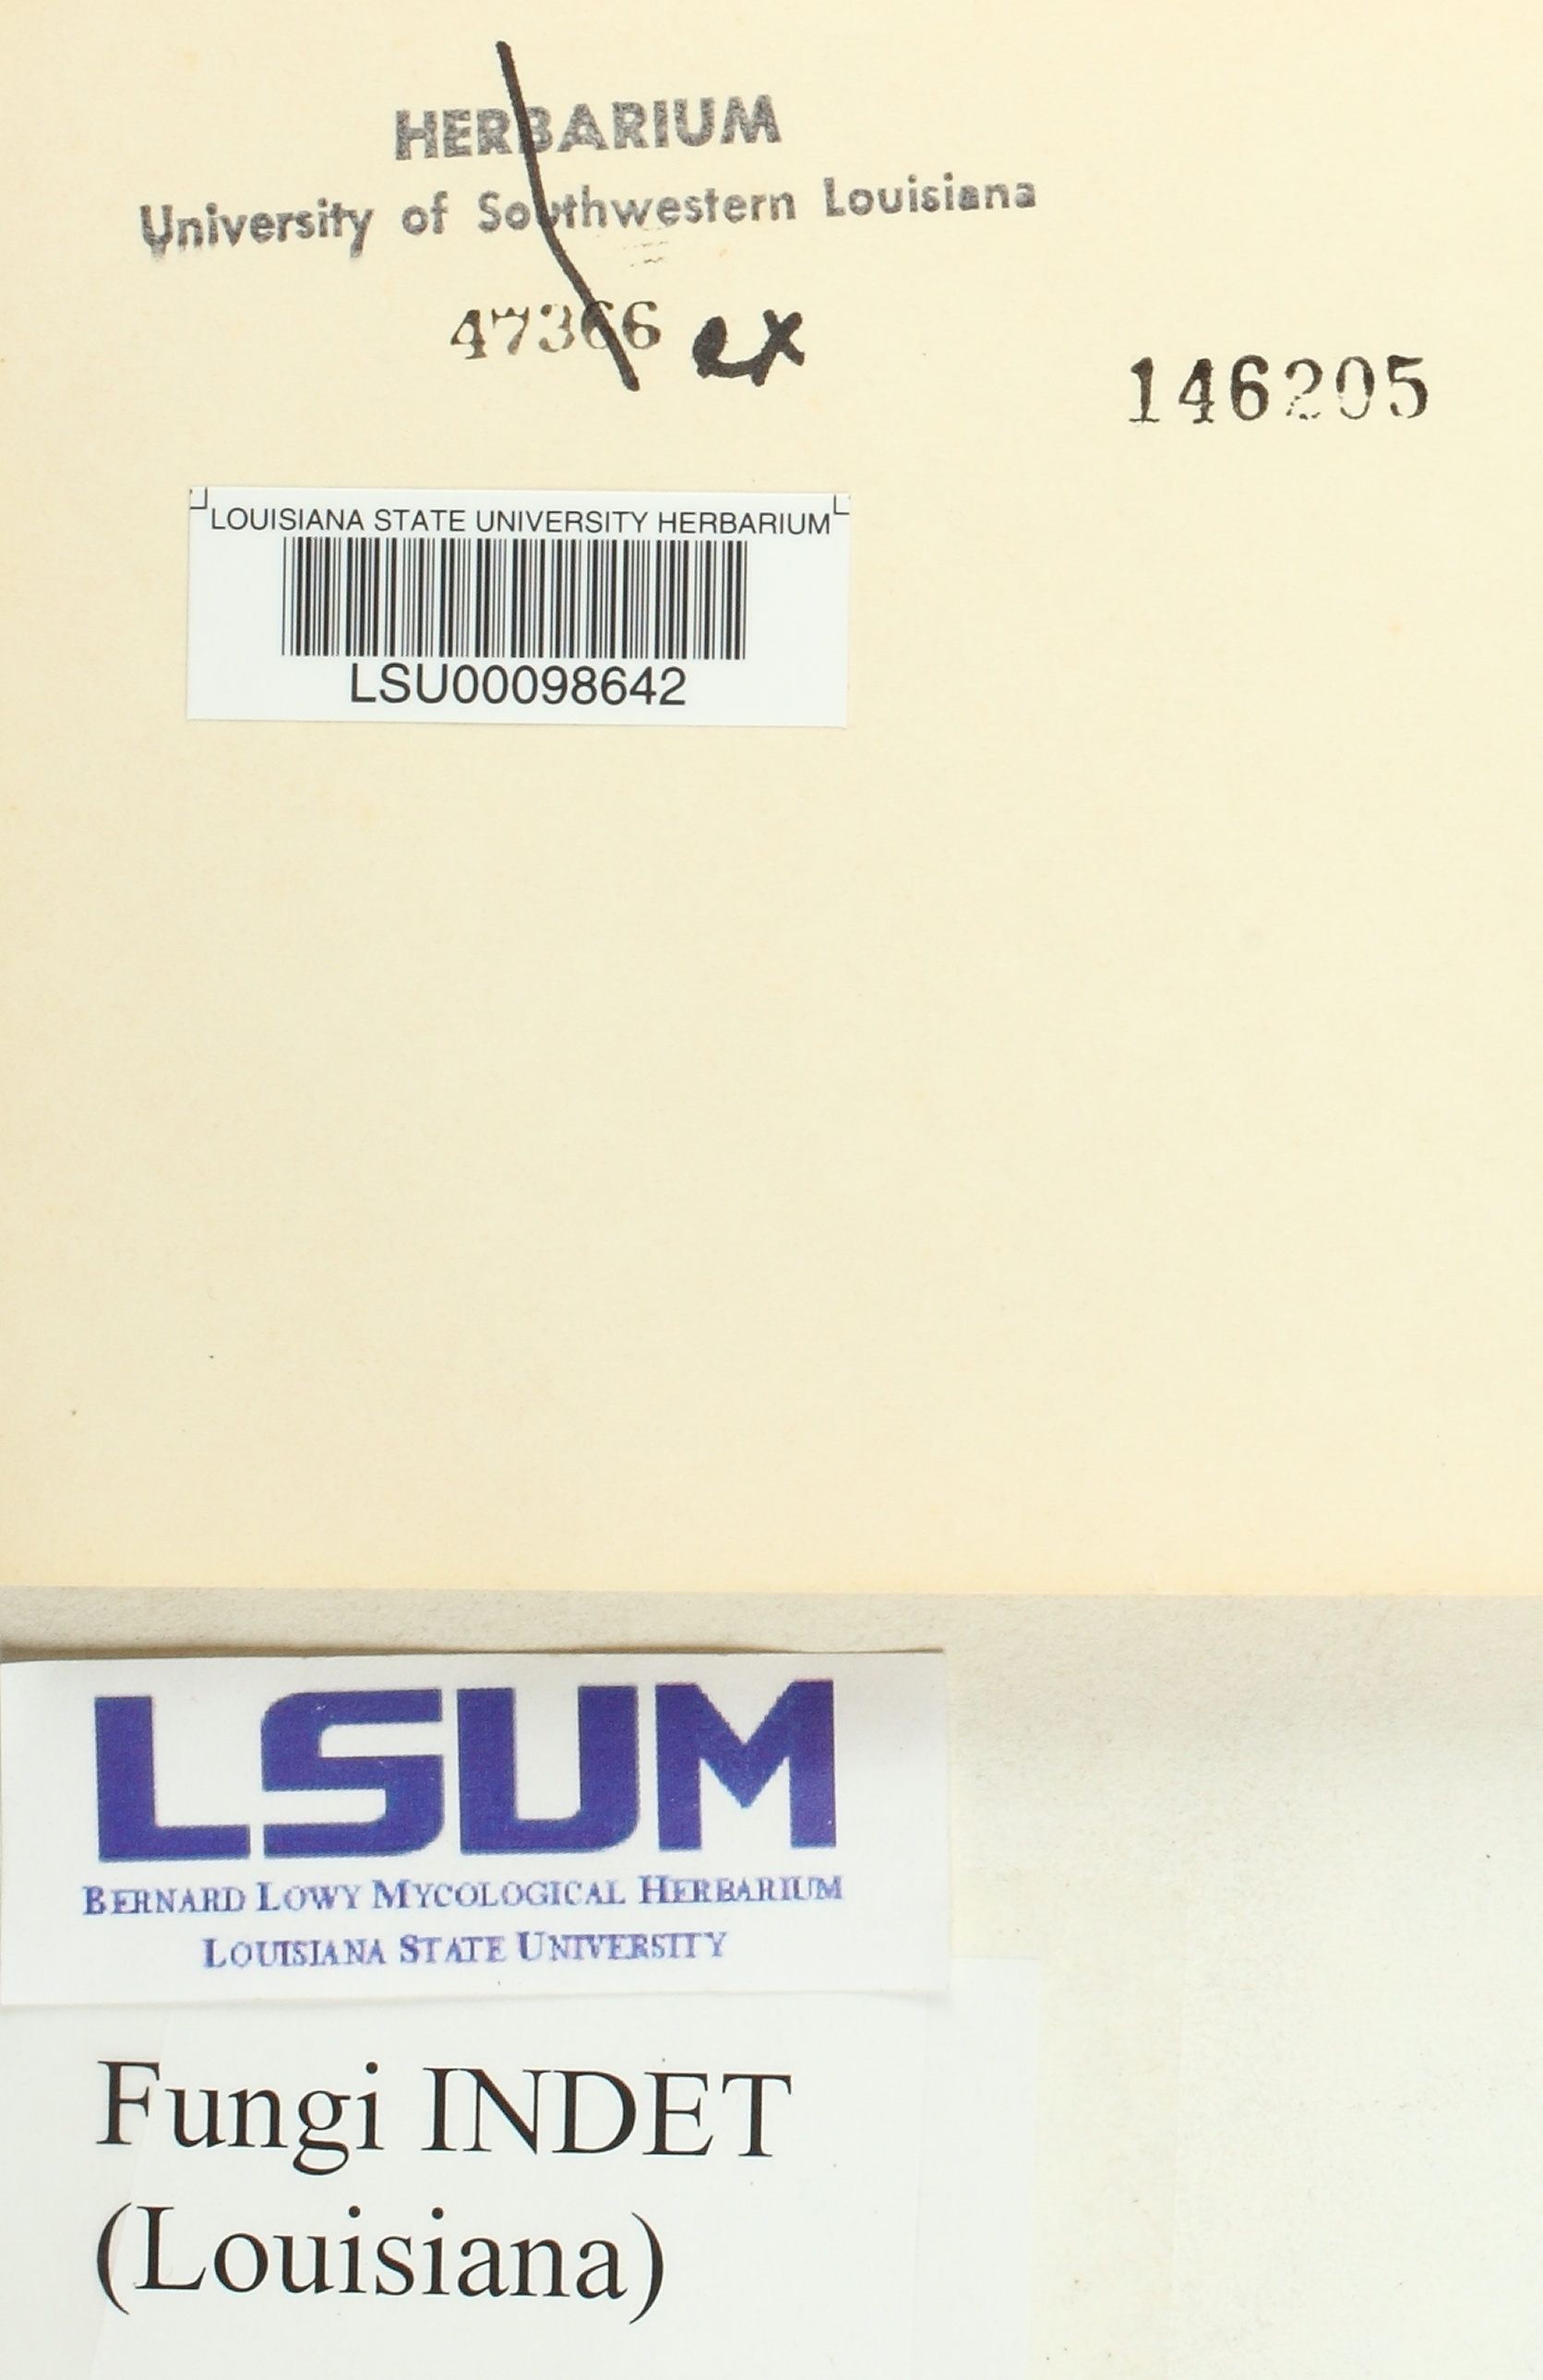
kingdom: Fungi
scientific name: Fungi
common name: Fungi
